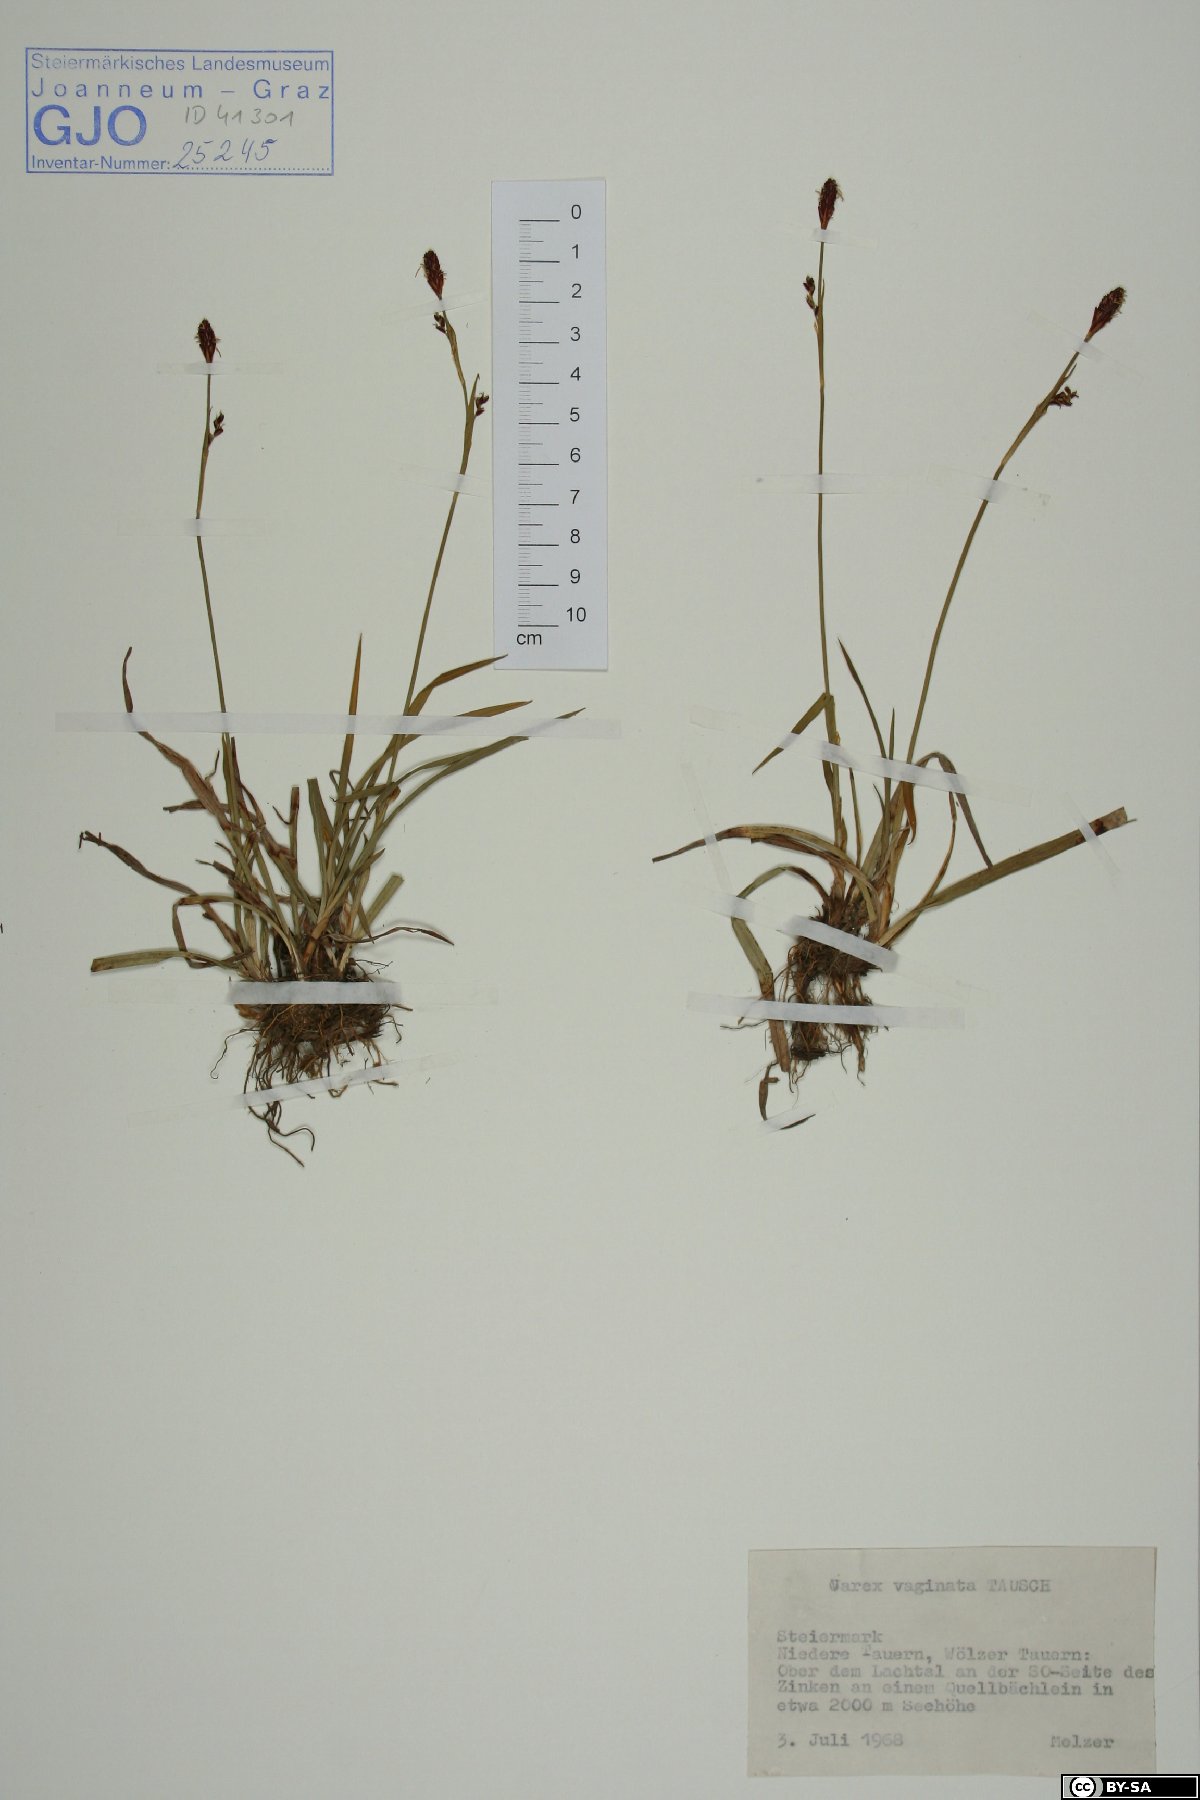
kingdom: Plantae
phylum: Tracheophyta
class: Liliopsida
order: Poales
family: Cyperaceae
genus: Carex
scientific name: Carex vaginata
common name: Sheathed sedge
